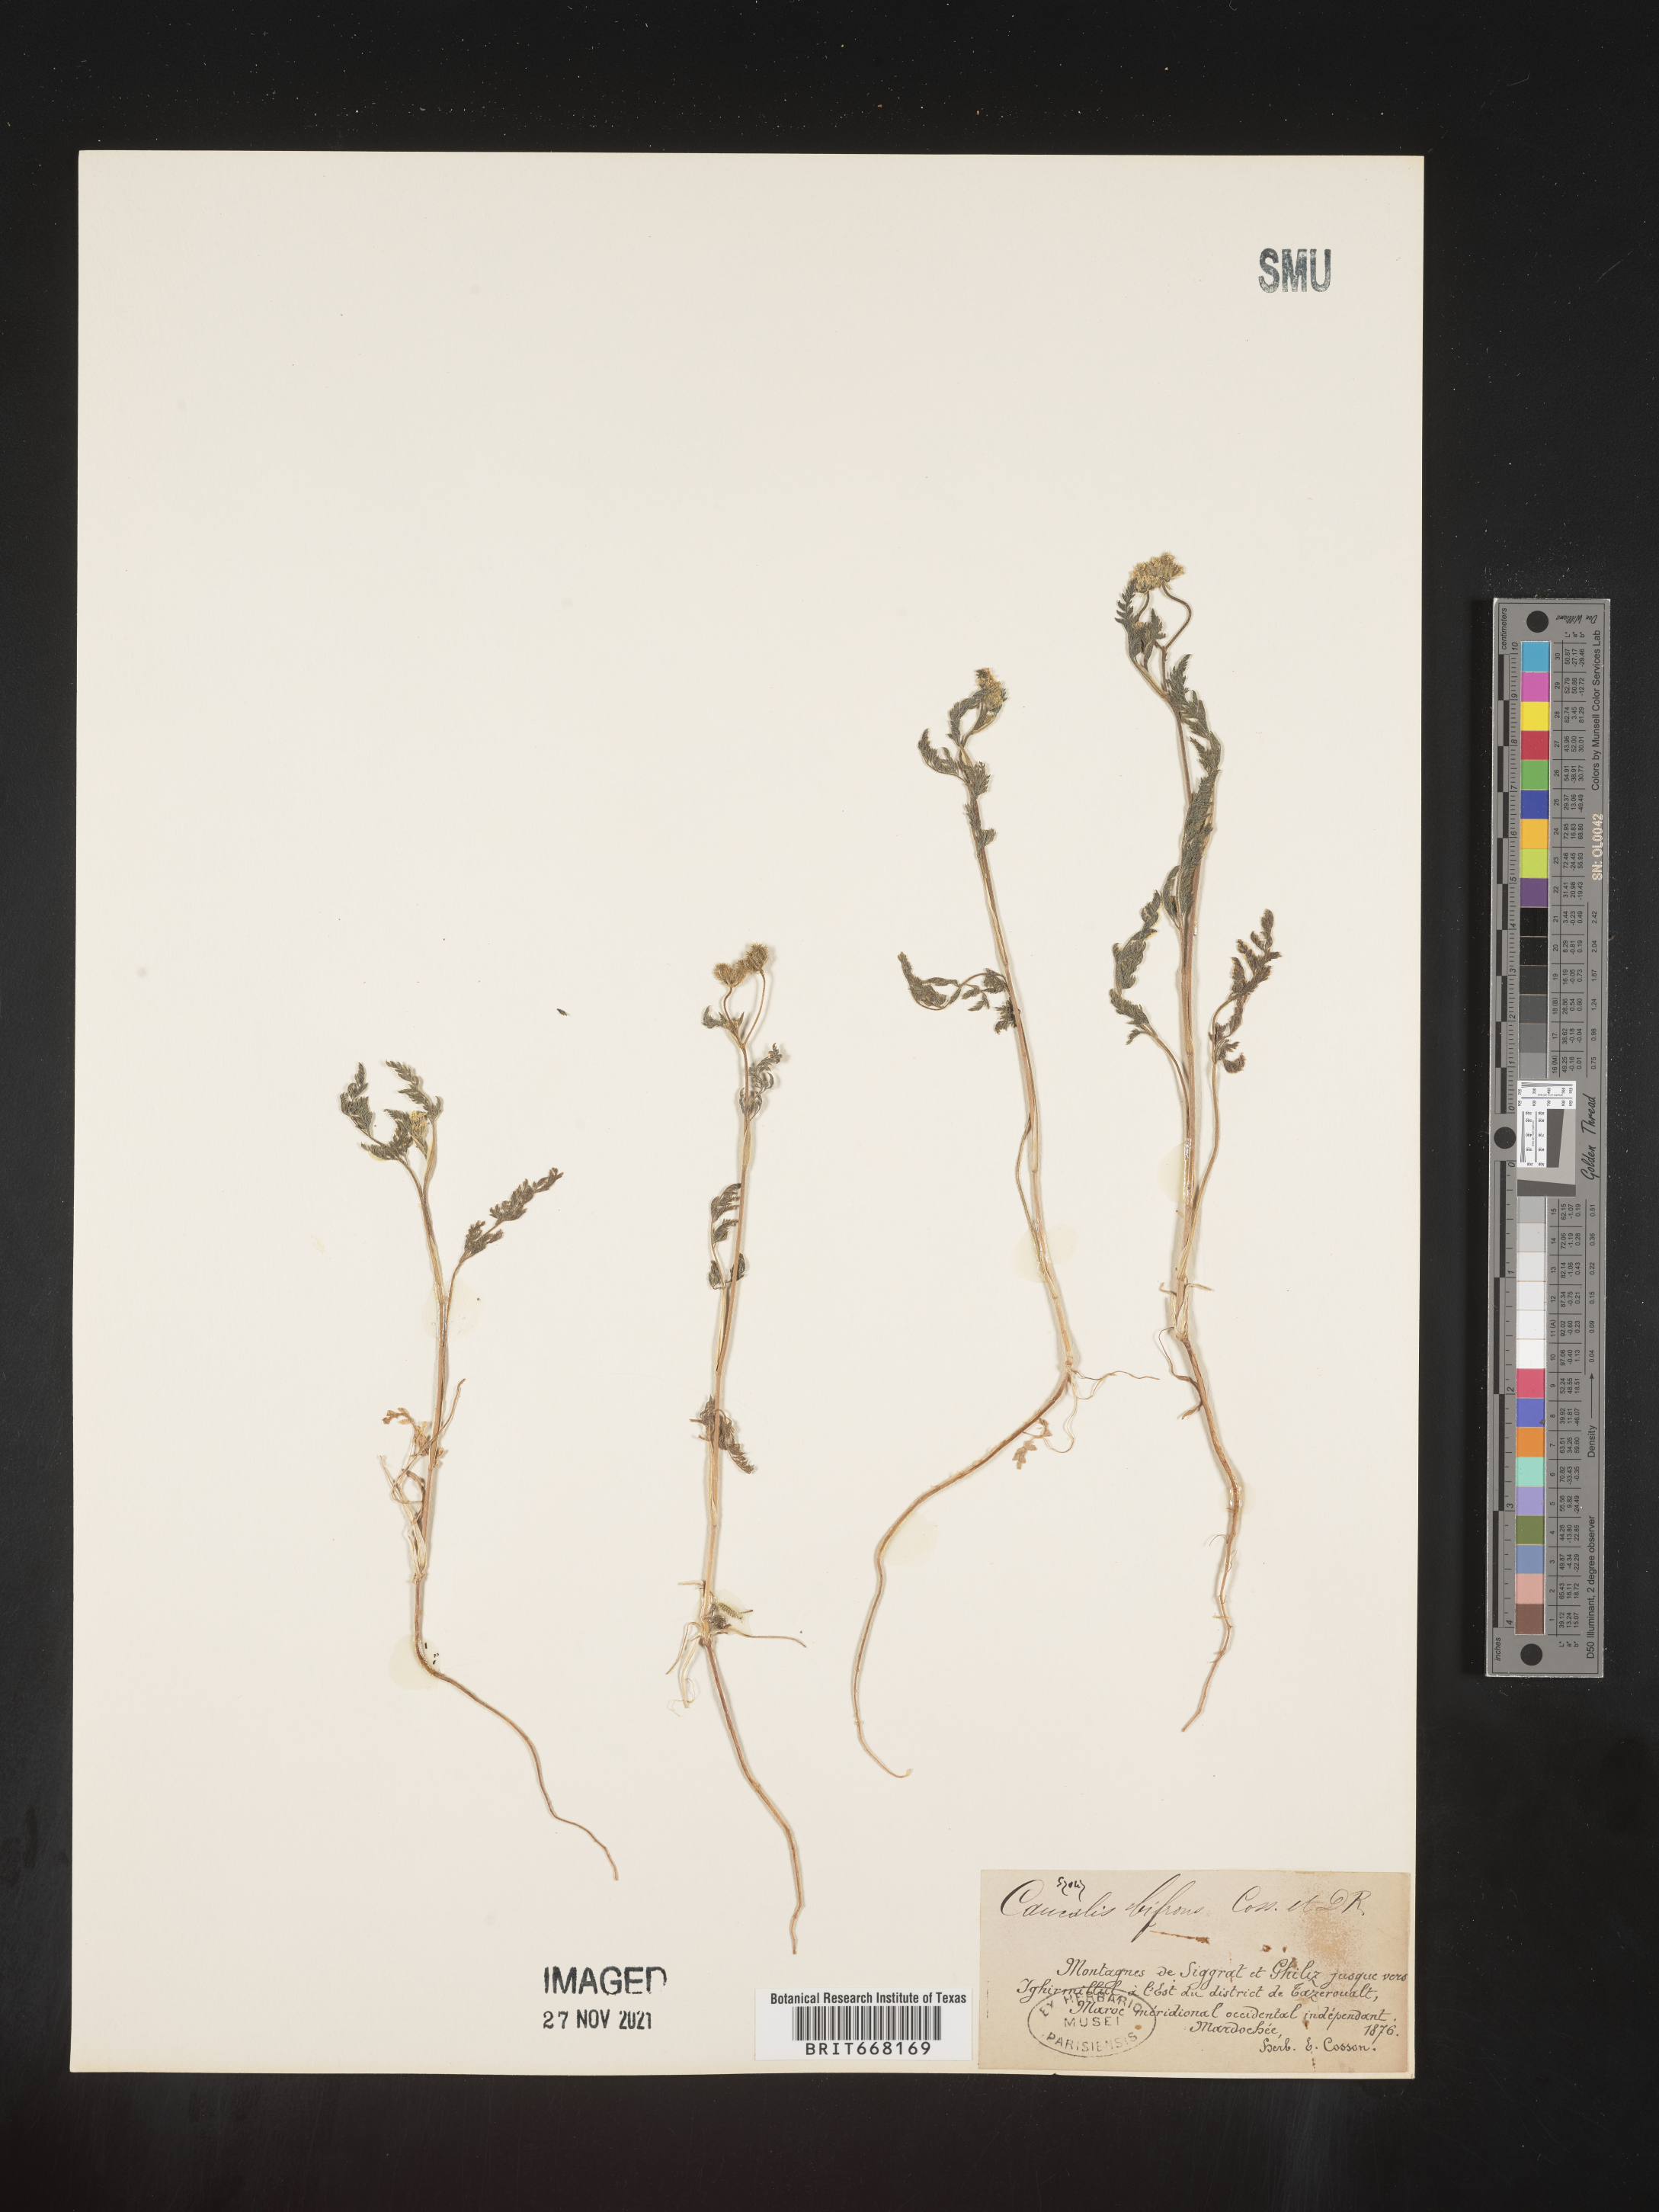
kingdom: Plantae
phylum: Tracheophyta
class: Magnoliopsida
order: Apiales
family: Apiaceae
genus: Caucalis
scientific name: Caucalis
